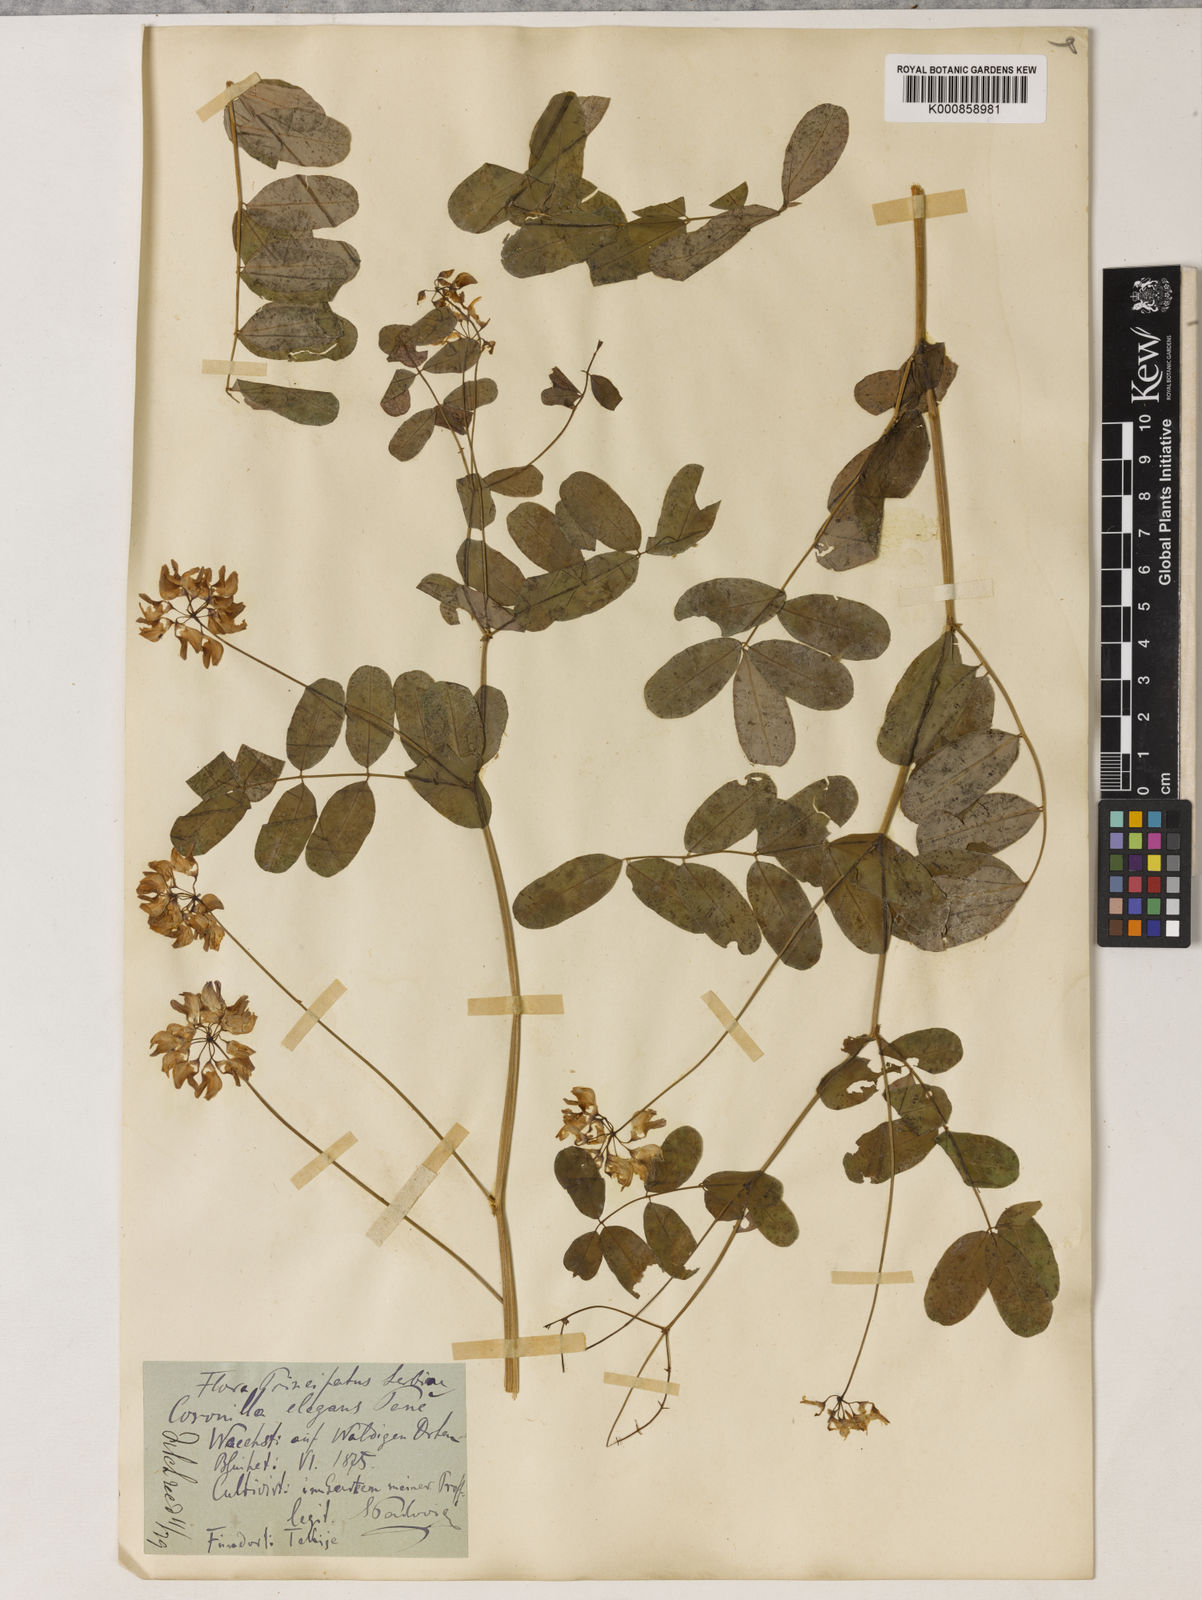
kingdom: Plantae
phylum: Tracheophyta
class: Magnoliopsida
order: Fabales
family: Fabaceae
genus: Coronilla
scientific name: Coronilla elegans
